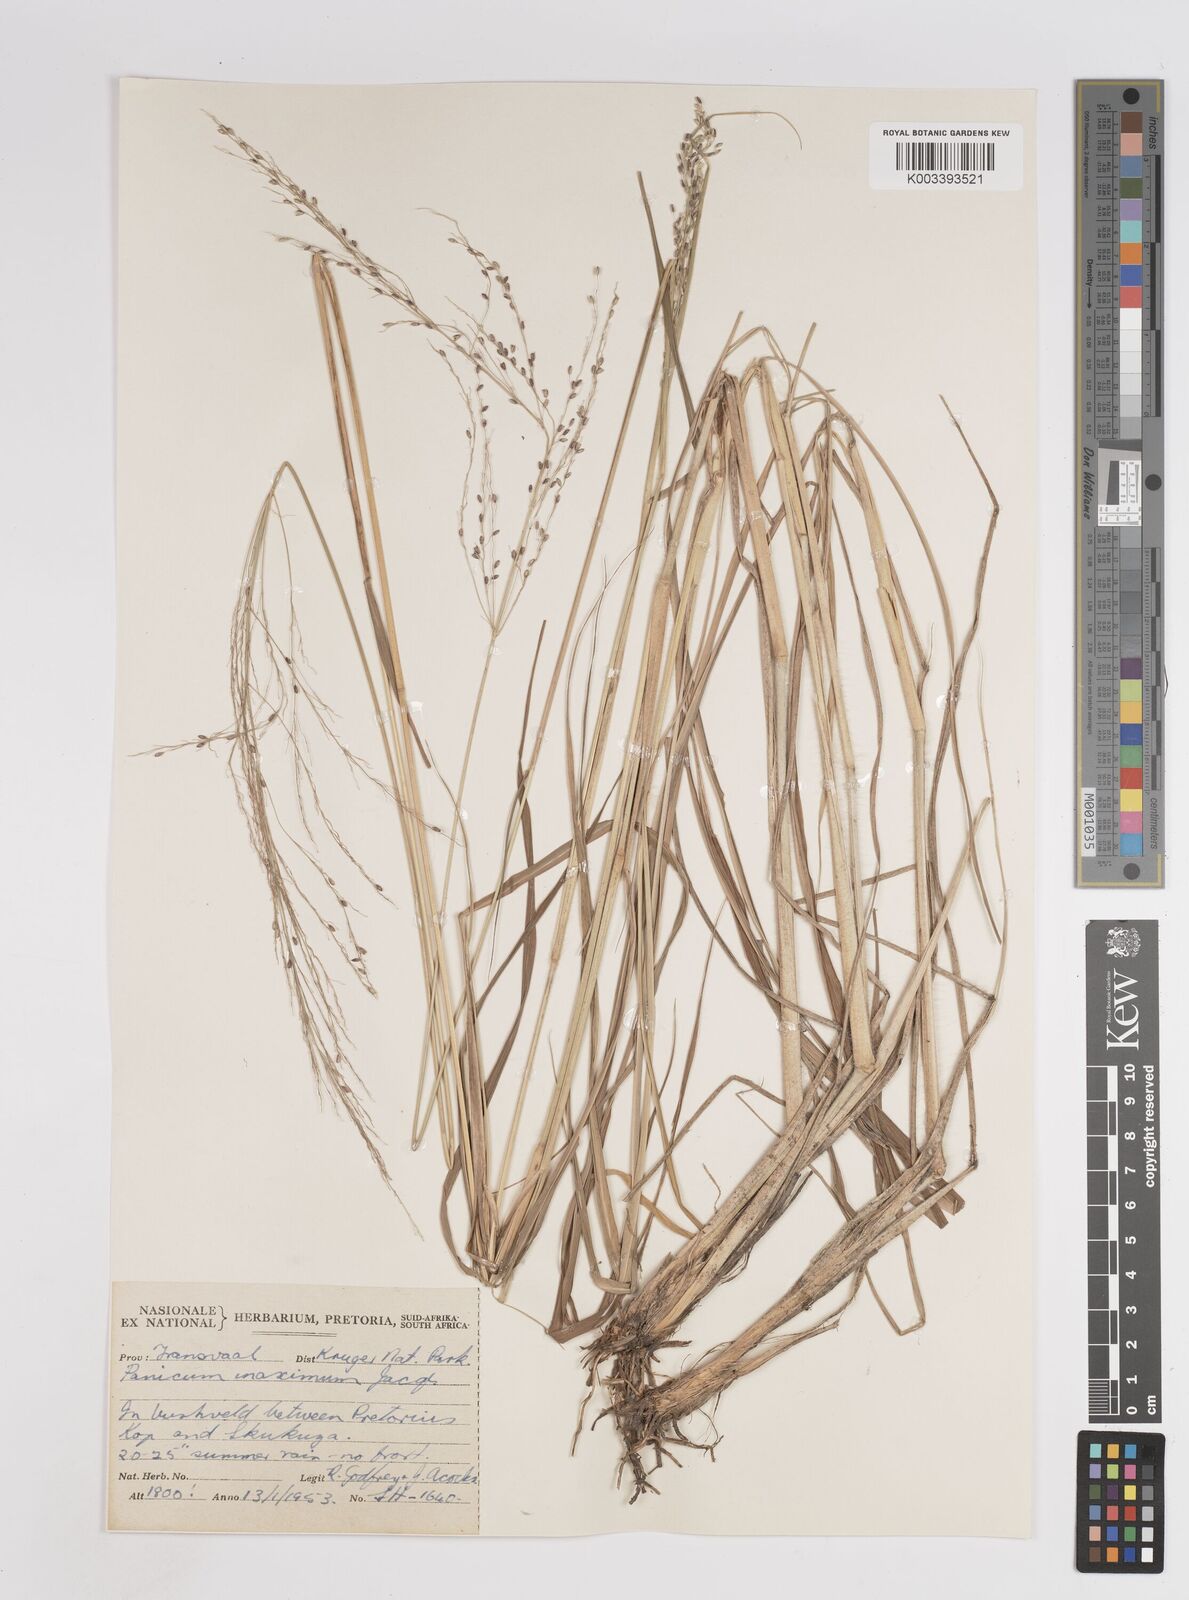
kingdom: Plantae
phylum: Tracheophyta
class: Liliopsida
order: Poales
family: Poaceae
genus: Megathyrsus
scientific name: Megathyrsus maximus
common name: Guineagrass
